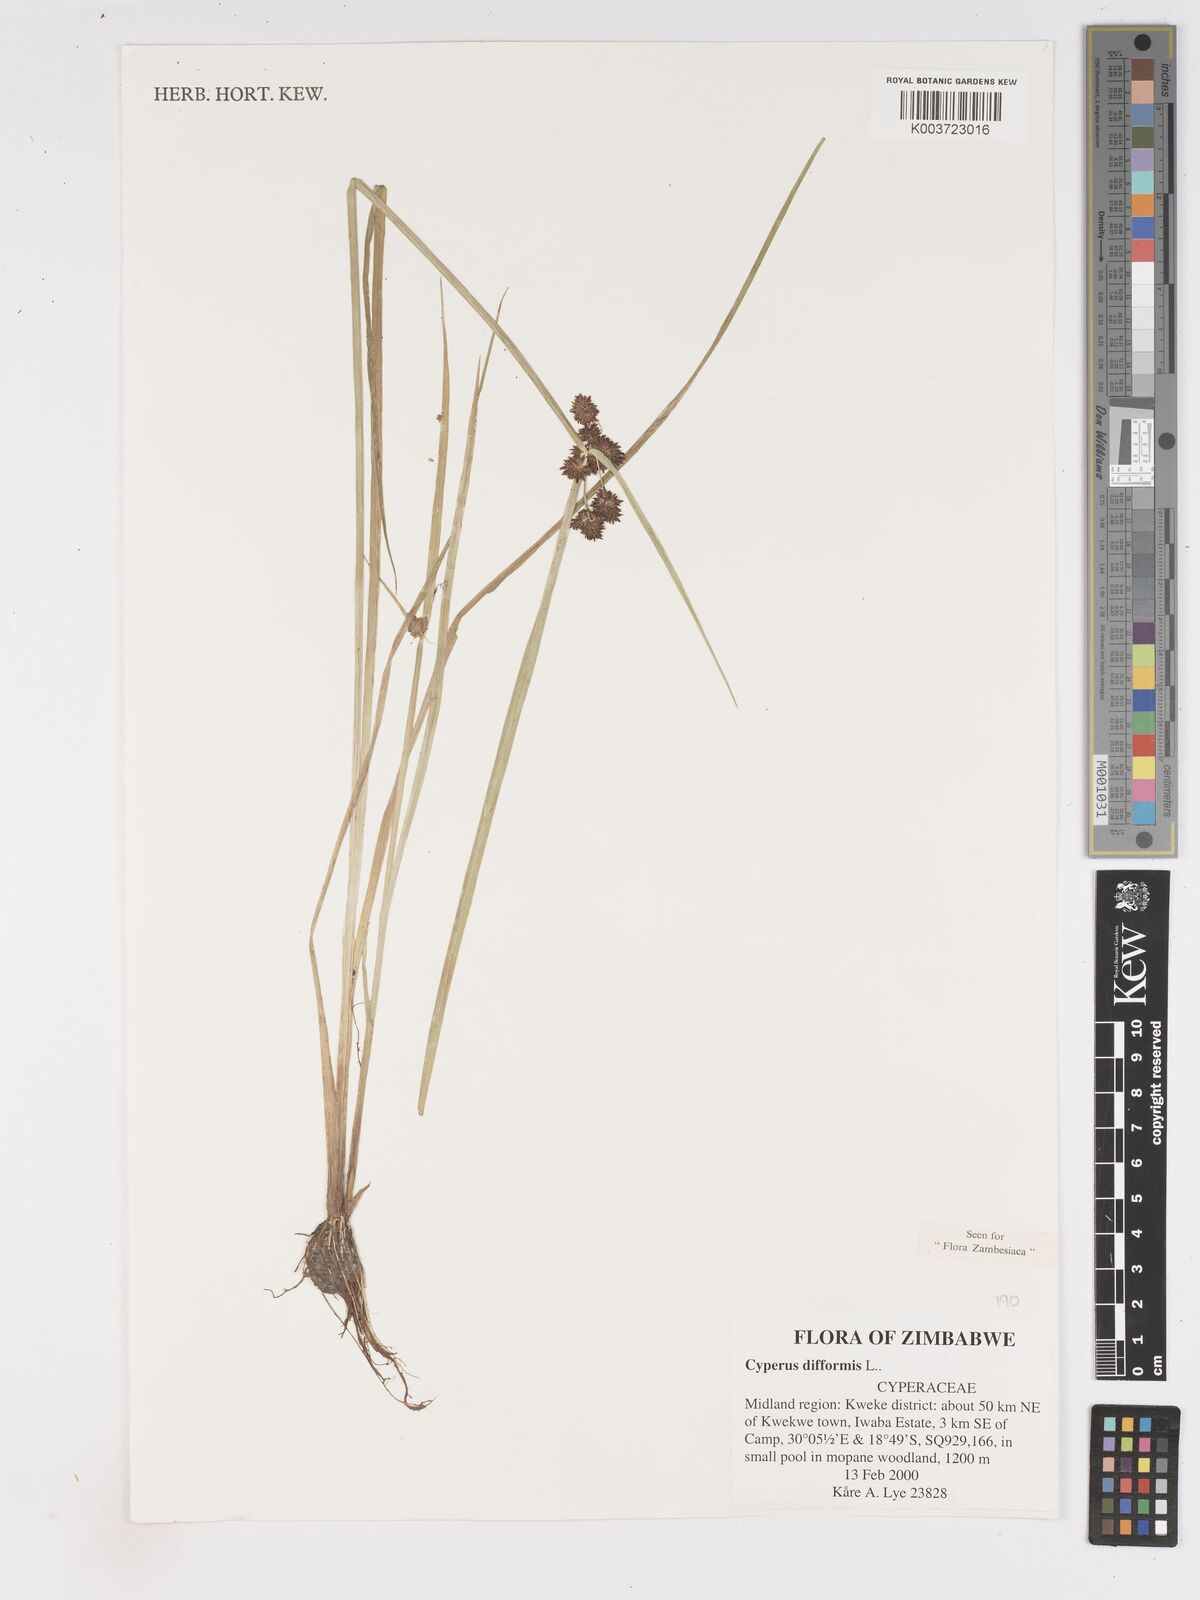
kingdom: Plantae
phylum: Tracheophyta
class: Liliopsida
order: Poales
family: Cyperaceae
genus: Cyperus
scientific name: Cyperus difformis
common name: Variable flatsedge
